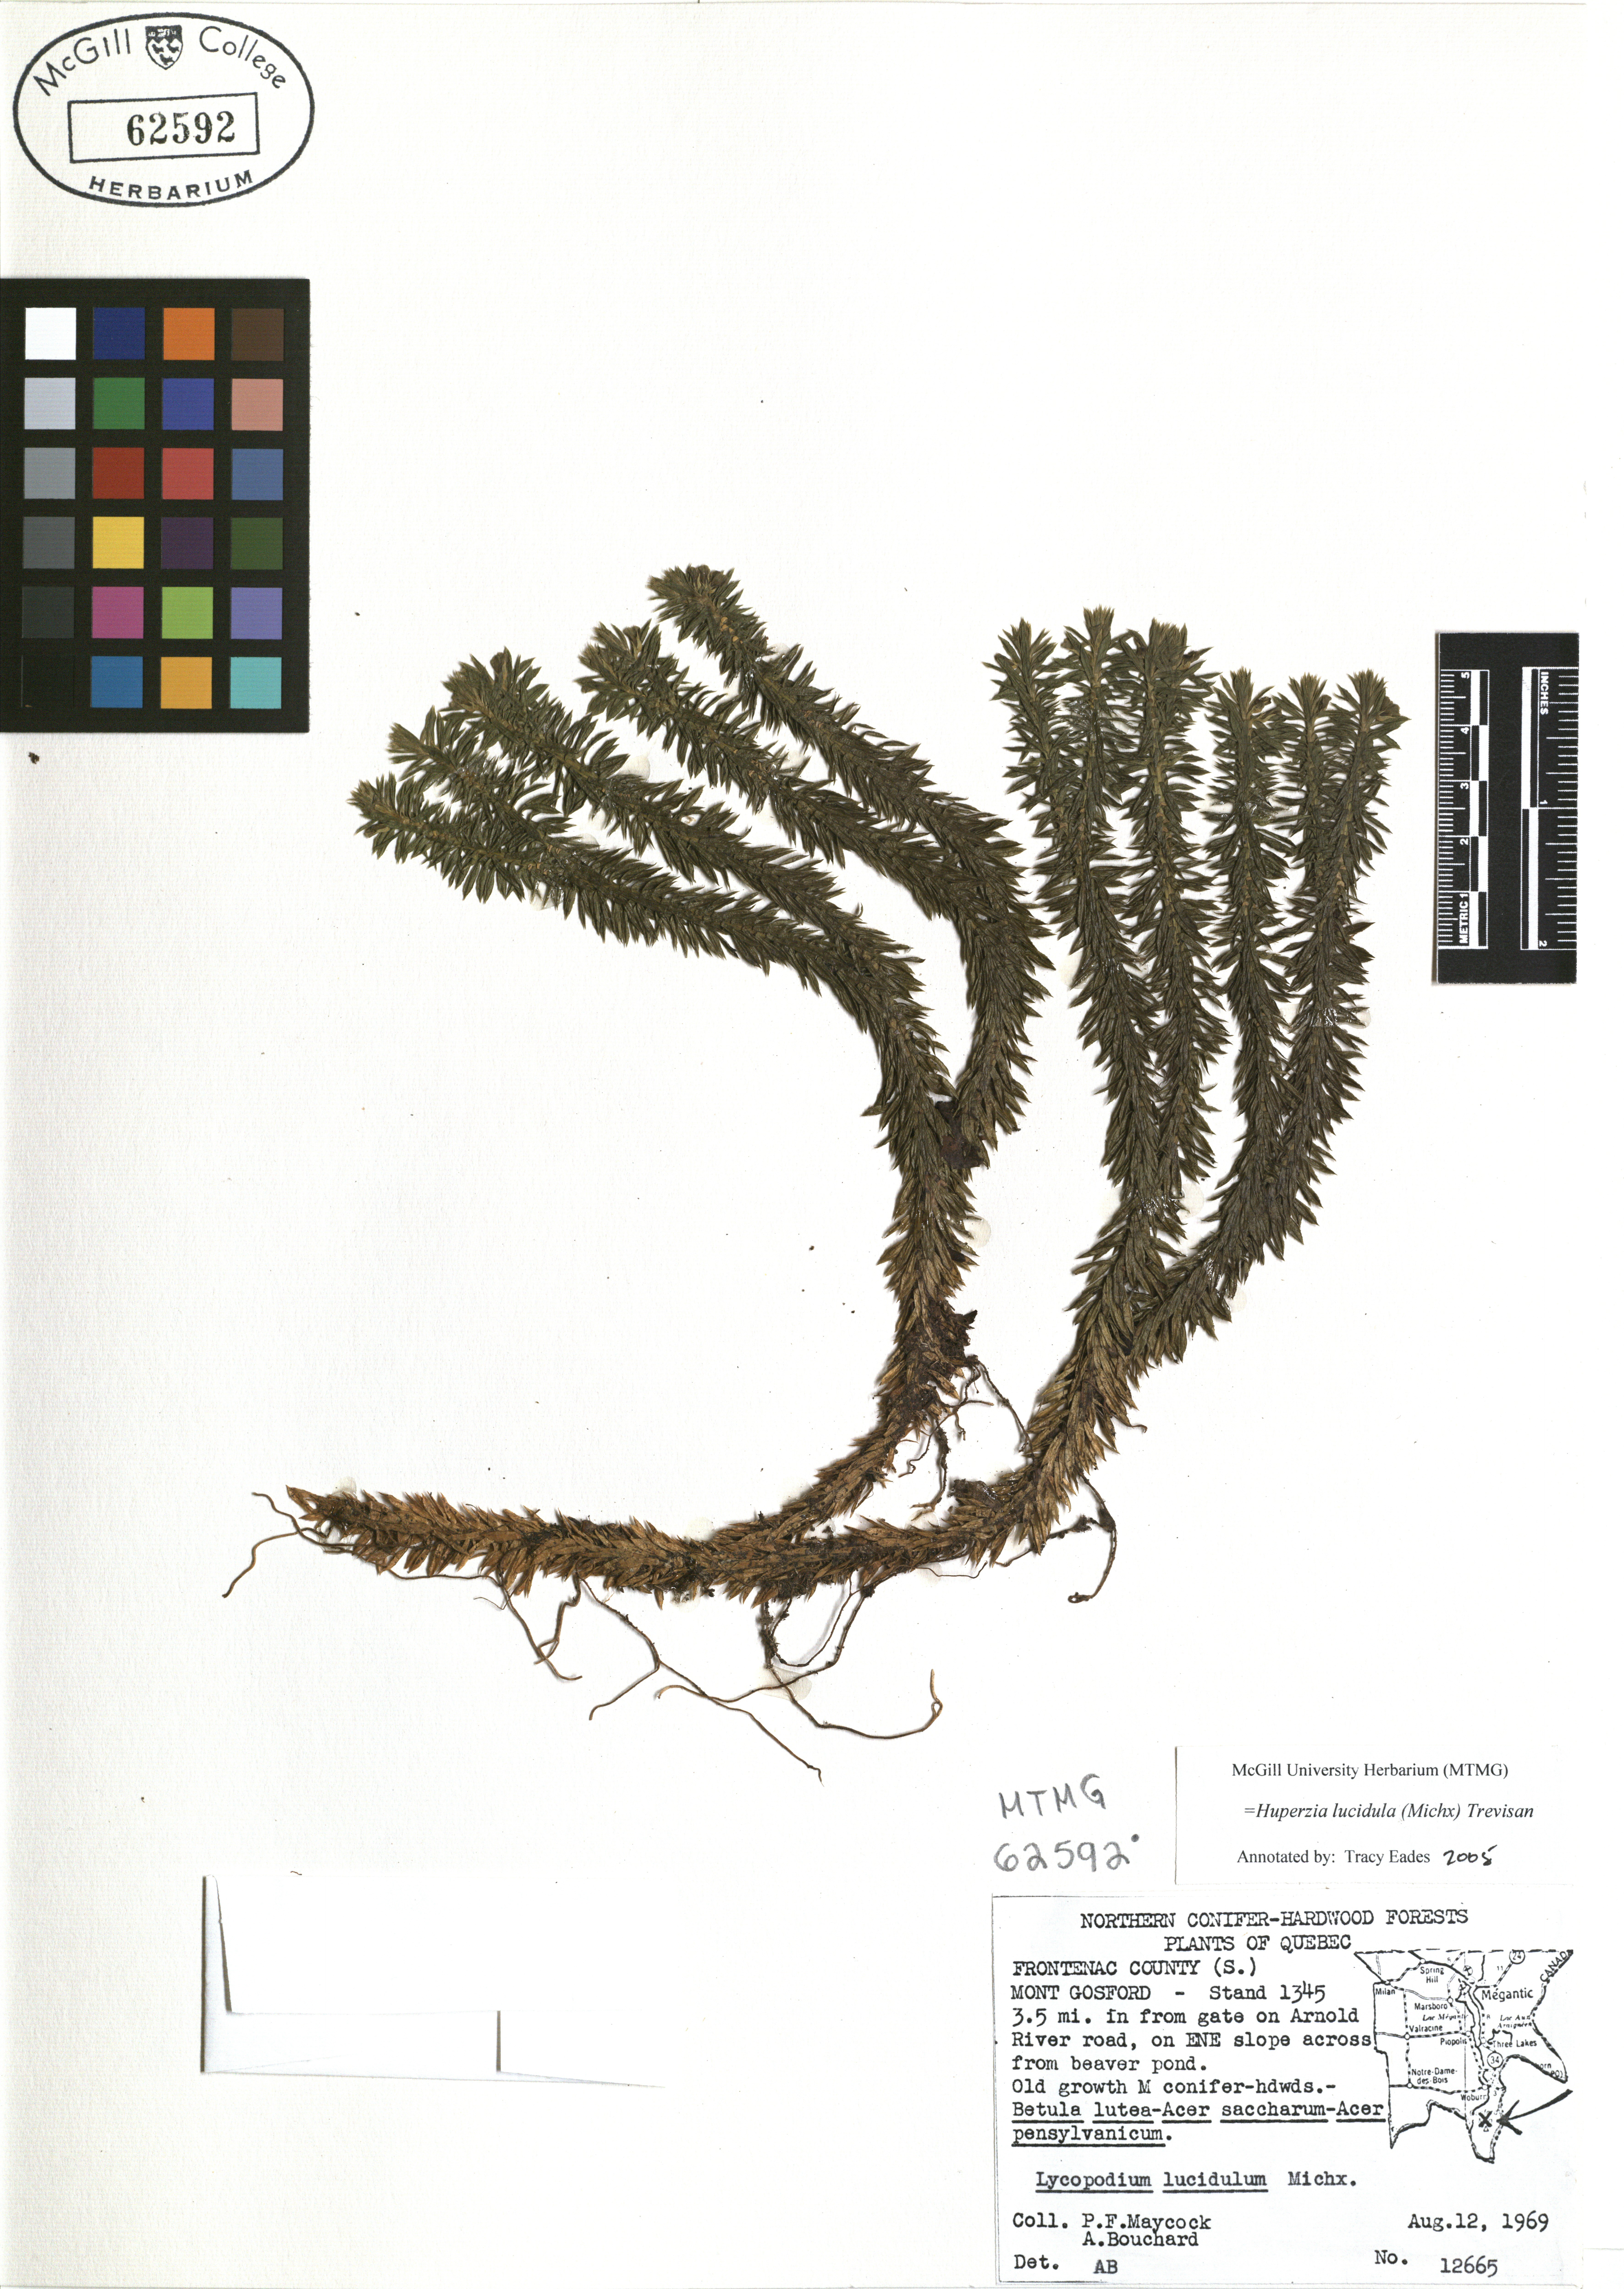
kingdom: Plantae
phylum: Tracheophyta
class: Lycopodiopsida
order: Lycopodiales
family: Lycopodiaceae
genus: Huperzia
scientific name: Huperzia lucidula
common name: Shining clubmoss
